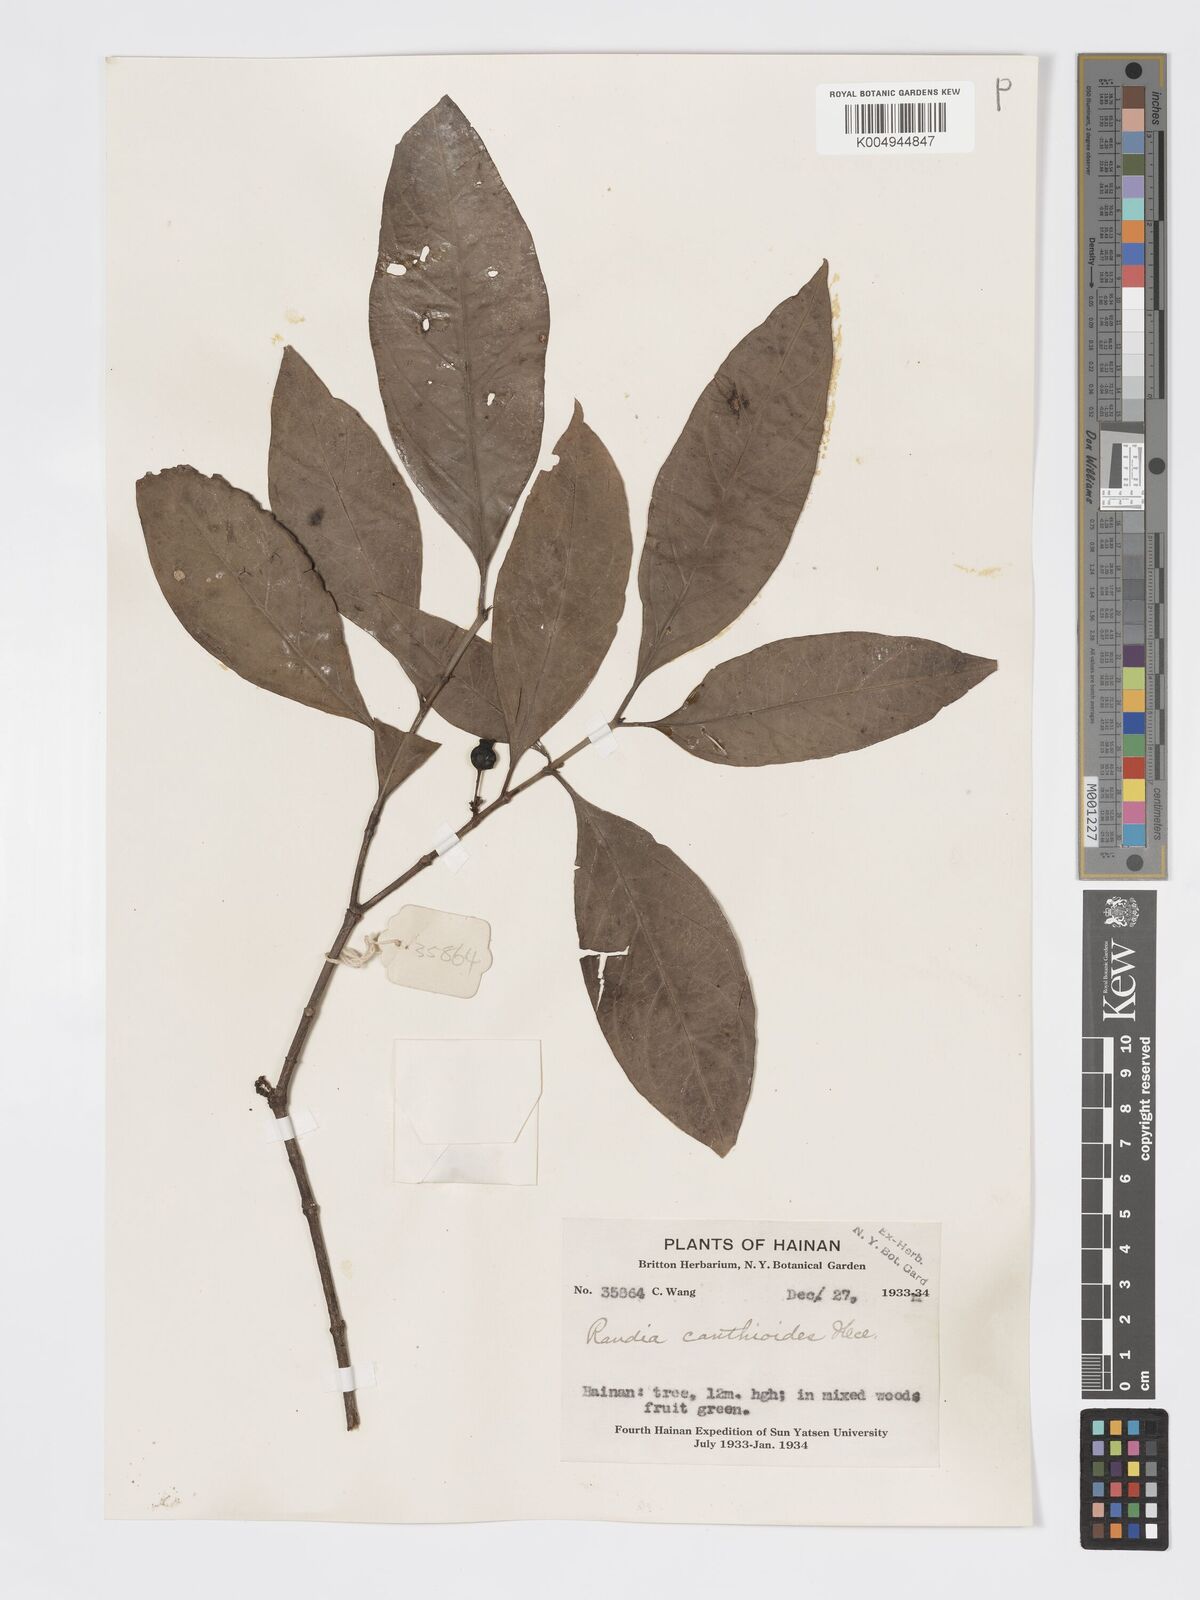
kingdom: Plantae
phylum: Tracheophyta
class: Magnoliopsida
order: Gentianales
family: Rubiaceae
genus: Aidia
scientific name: Aidia canthioides
